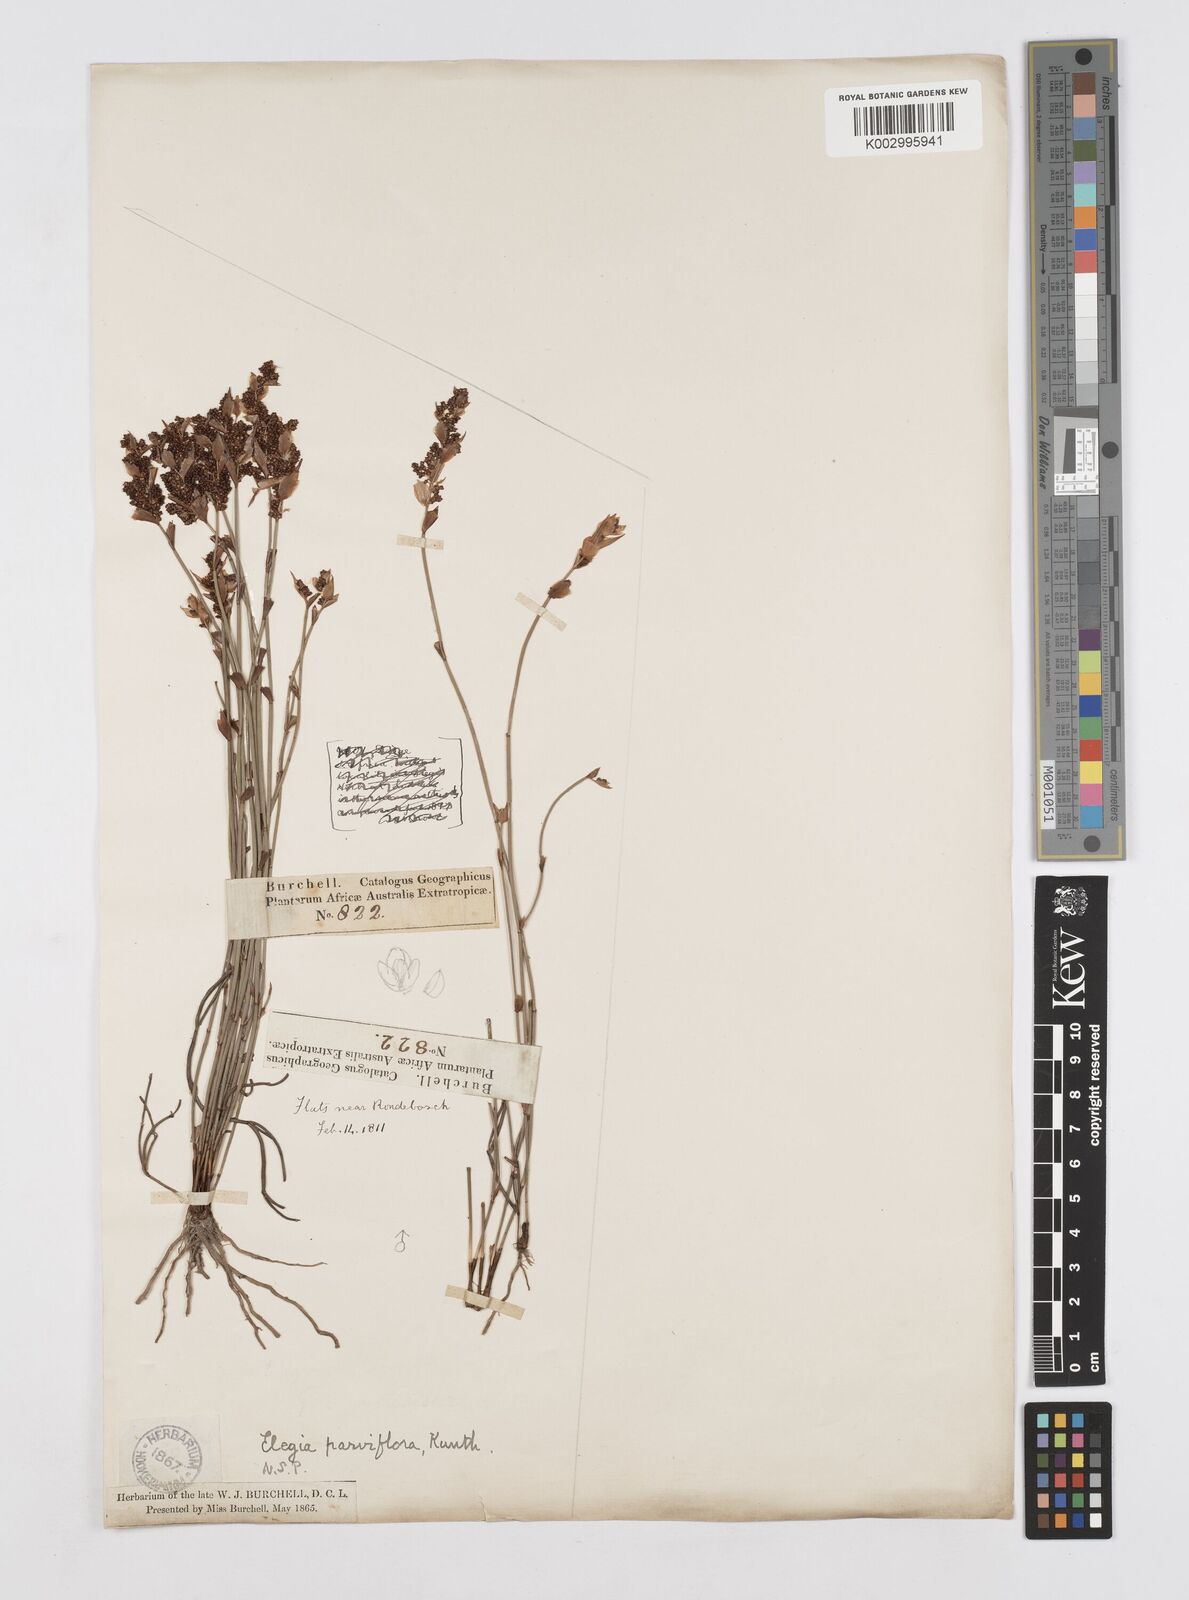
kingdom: Plantae
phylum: Tracheophyta
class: Liliopsida
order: Poales
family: Restionaceae
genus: Cannomois
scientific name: Cannomois parviflora
